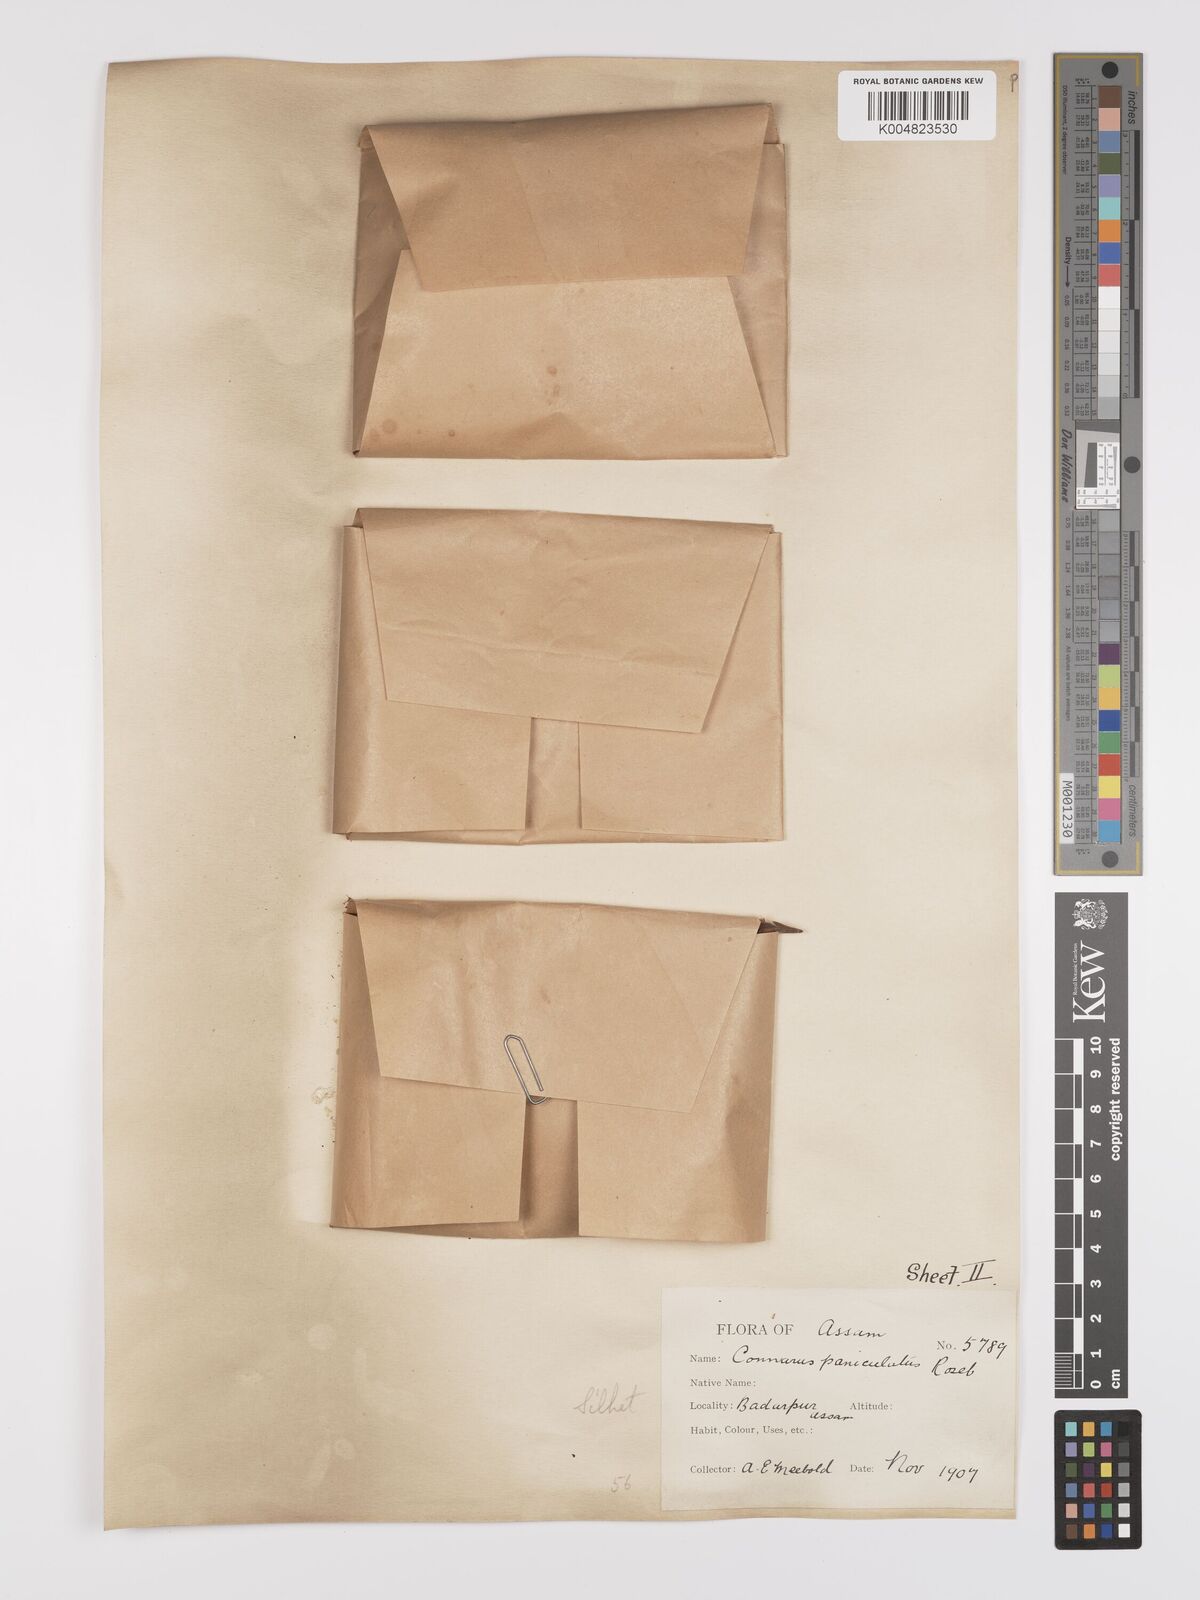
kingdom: Plantae
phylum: Tracheophyta
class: Magnoliopsida
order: Oxalidales
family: Connaraceae
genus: Connarus
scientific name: Connarus paniculatus
